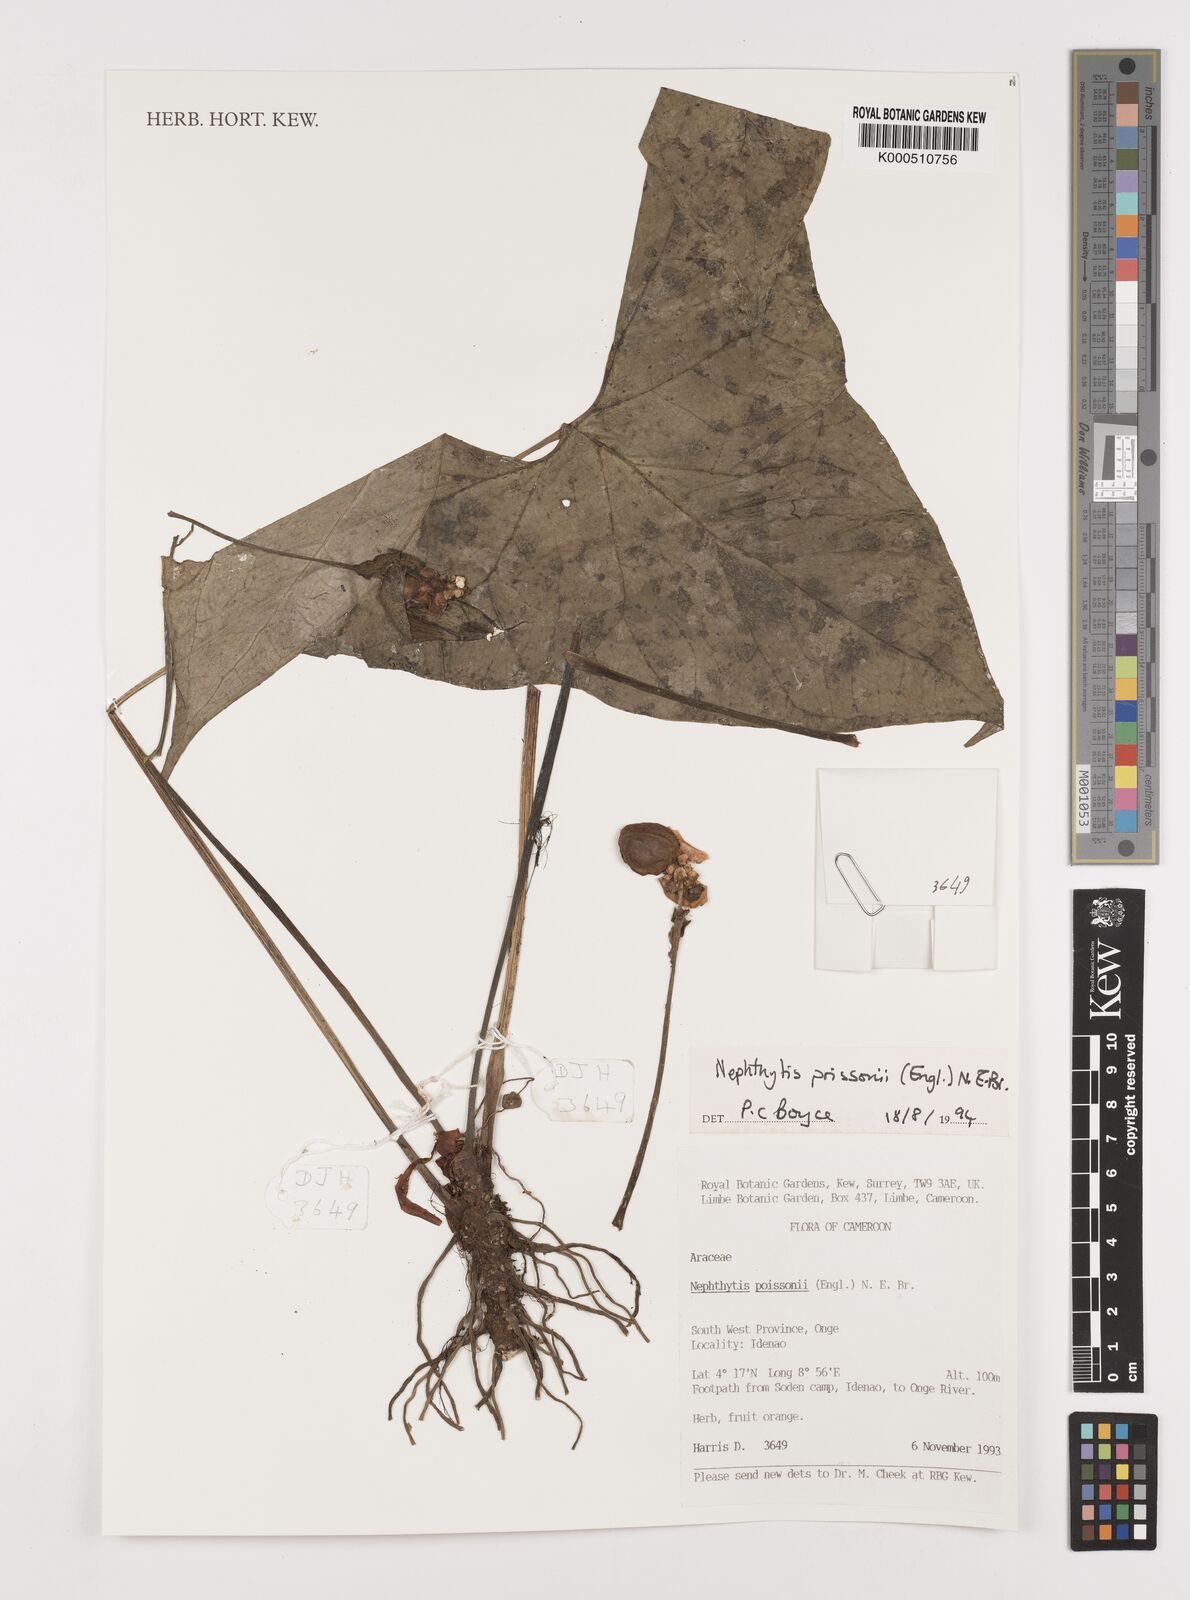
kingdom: Plantae
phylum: Tracheophyta
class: Liliopsida
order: Alismatales
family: Araceae
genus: Nephthytis
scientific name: Nephthytis poissonii
